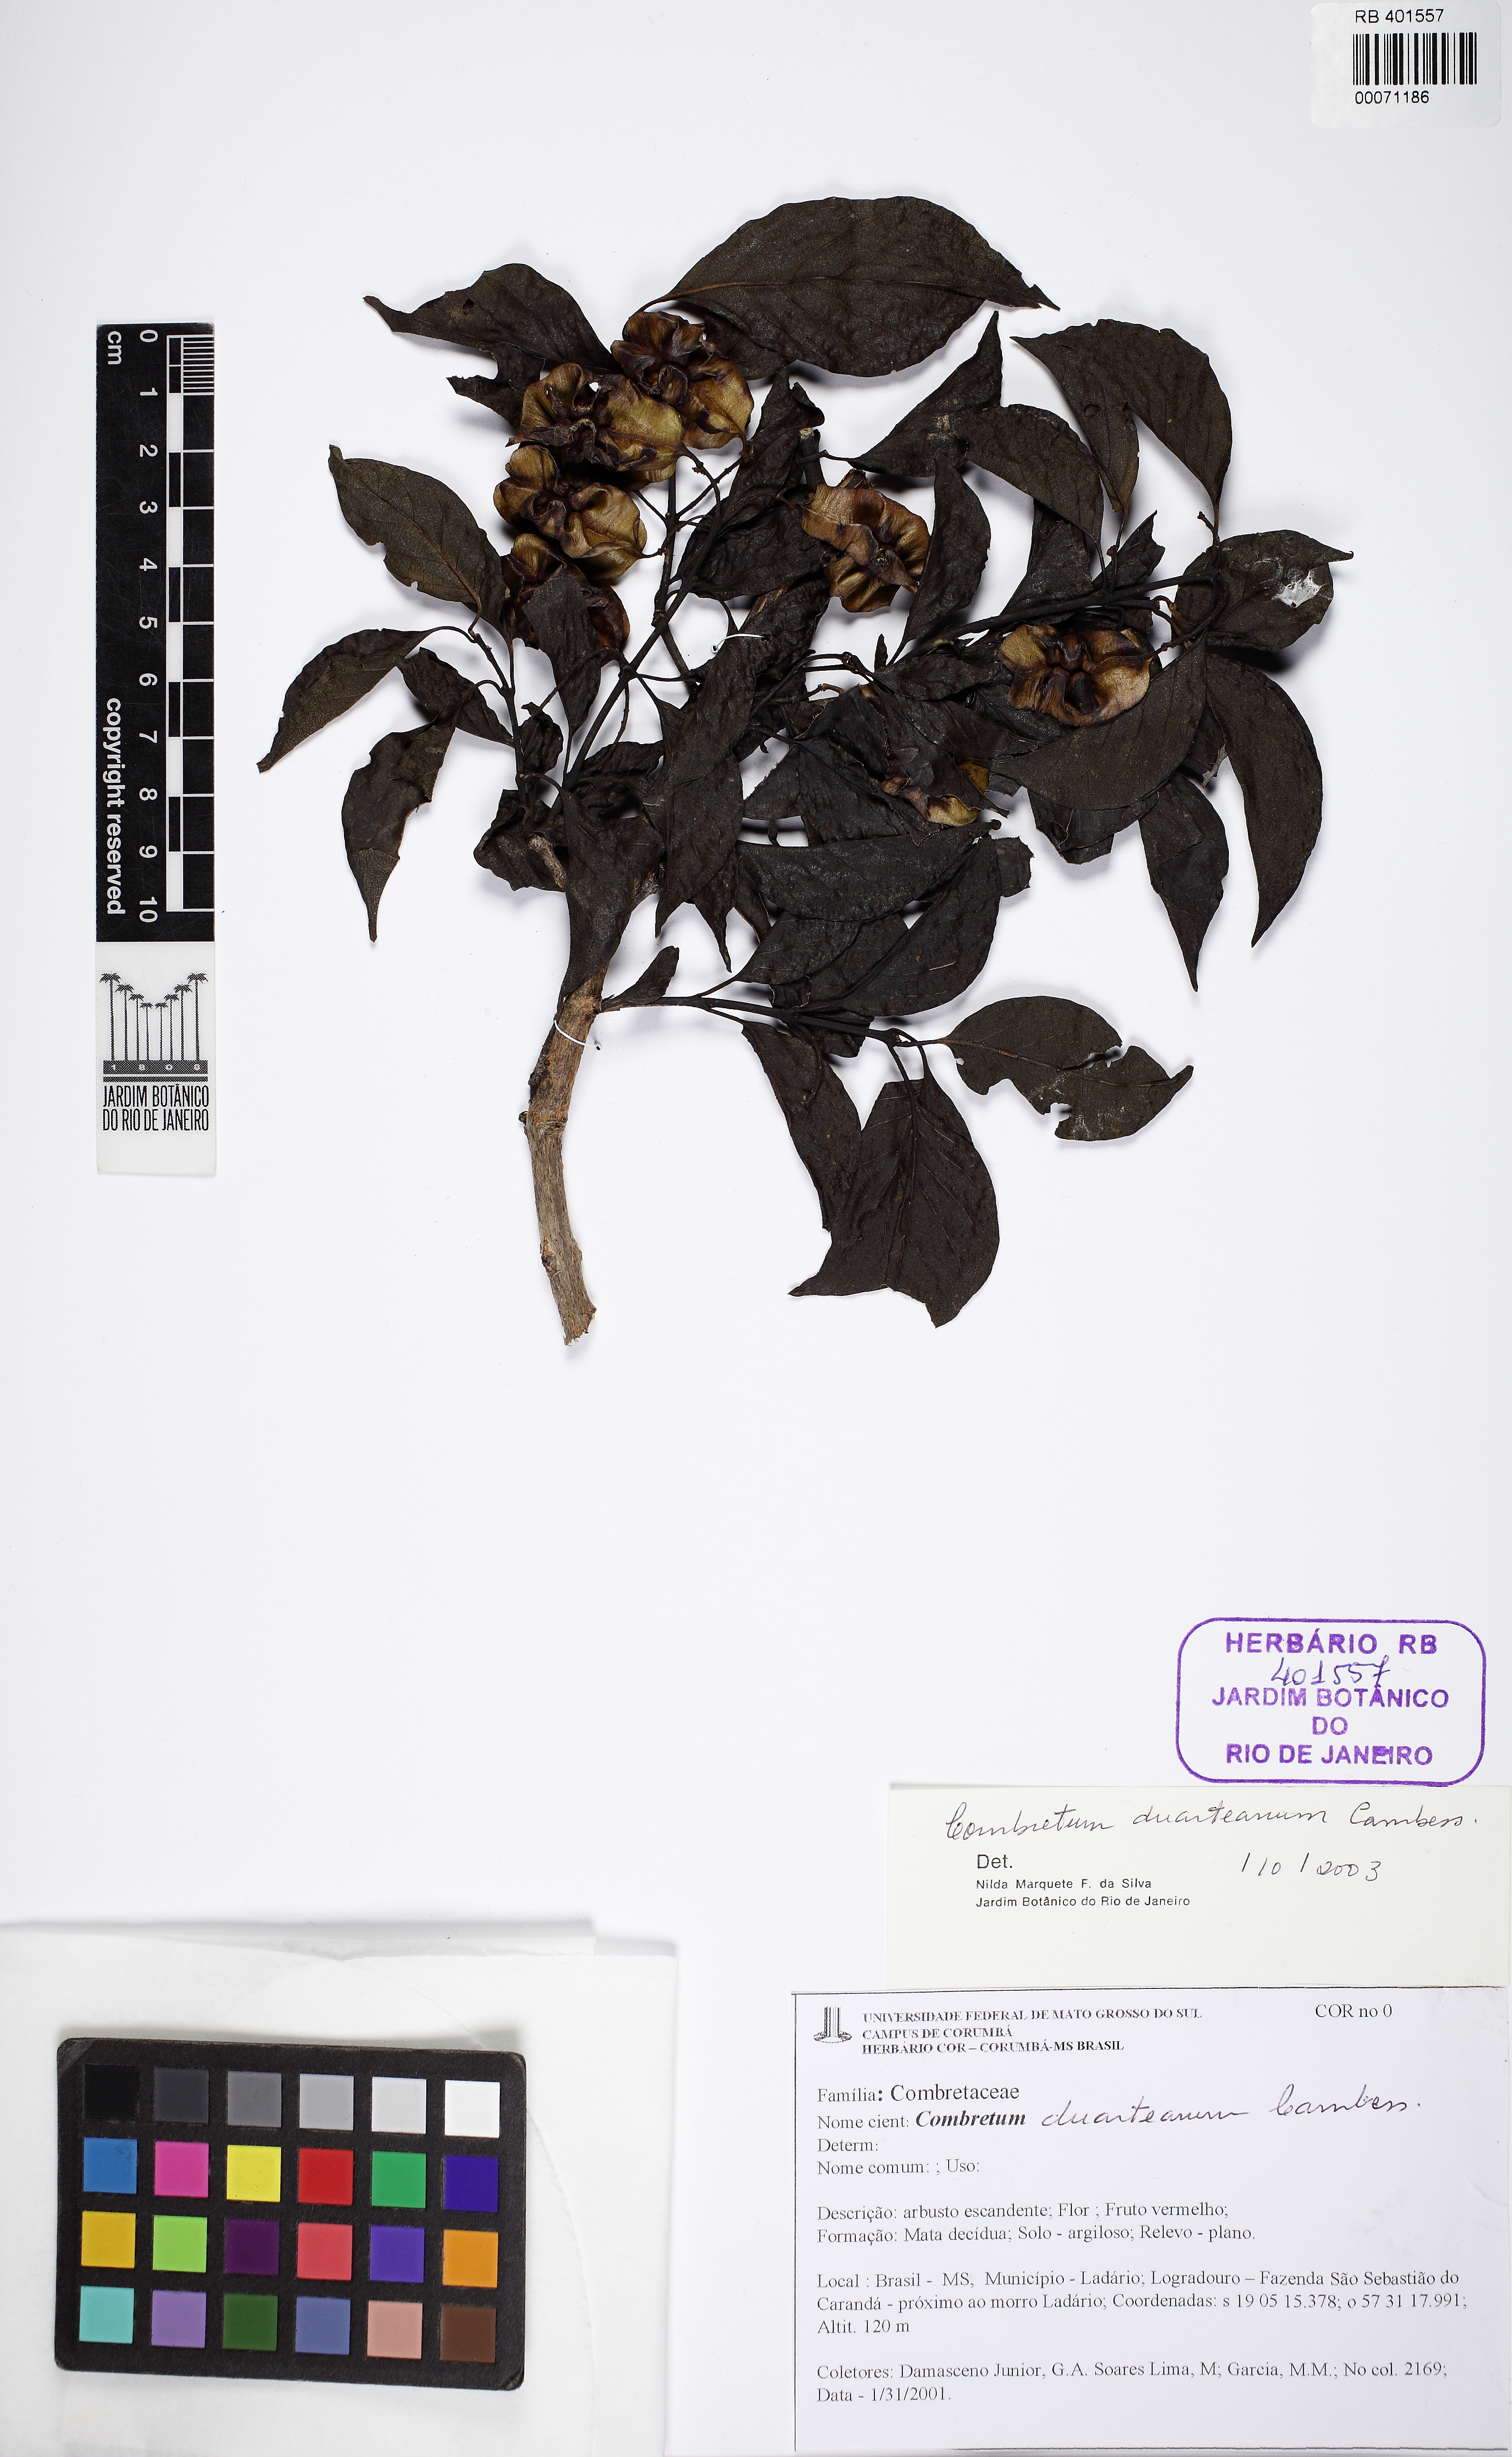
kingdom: Plantae
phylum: Tracheophyta
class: Magnoliopsida
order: Myrtales
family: Combretaceae
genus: Combretum
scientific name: Combretum duarteanum
